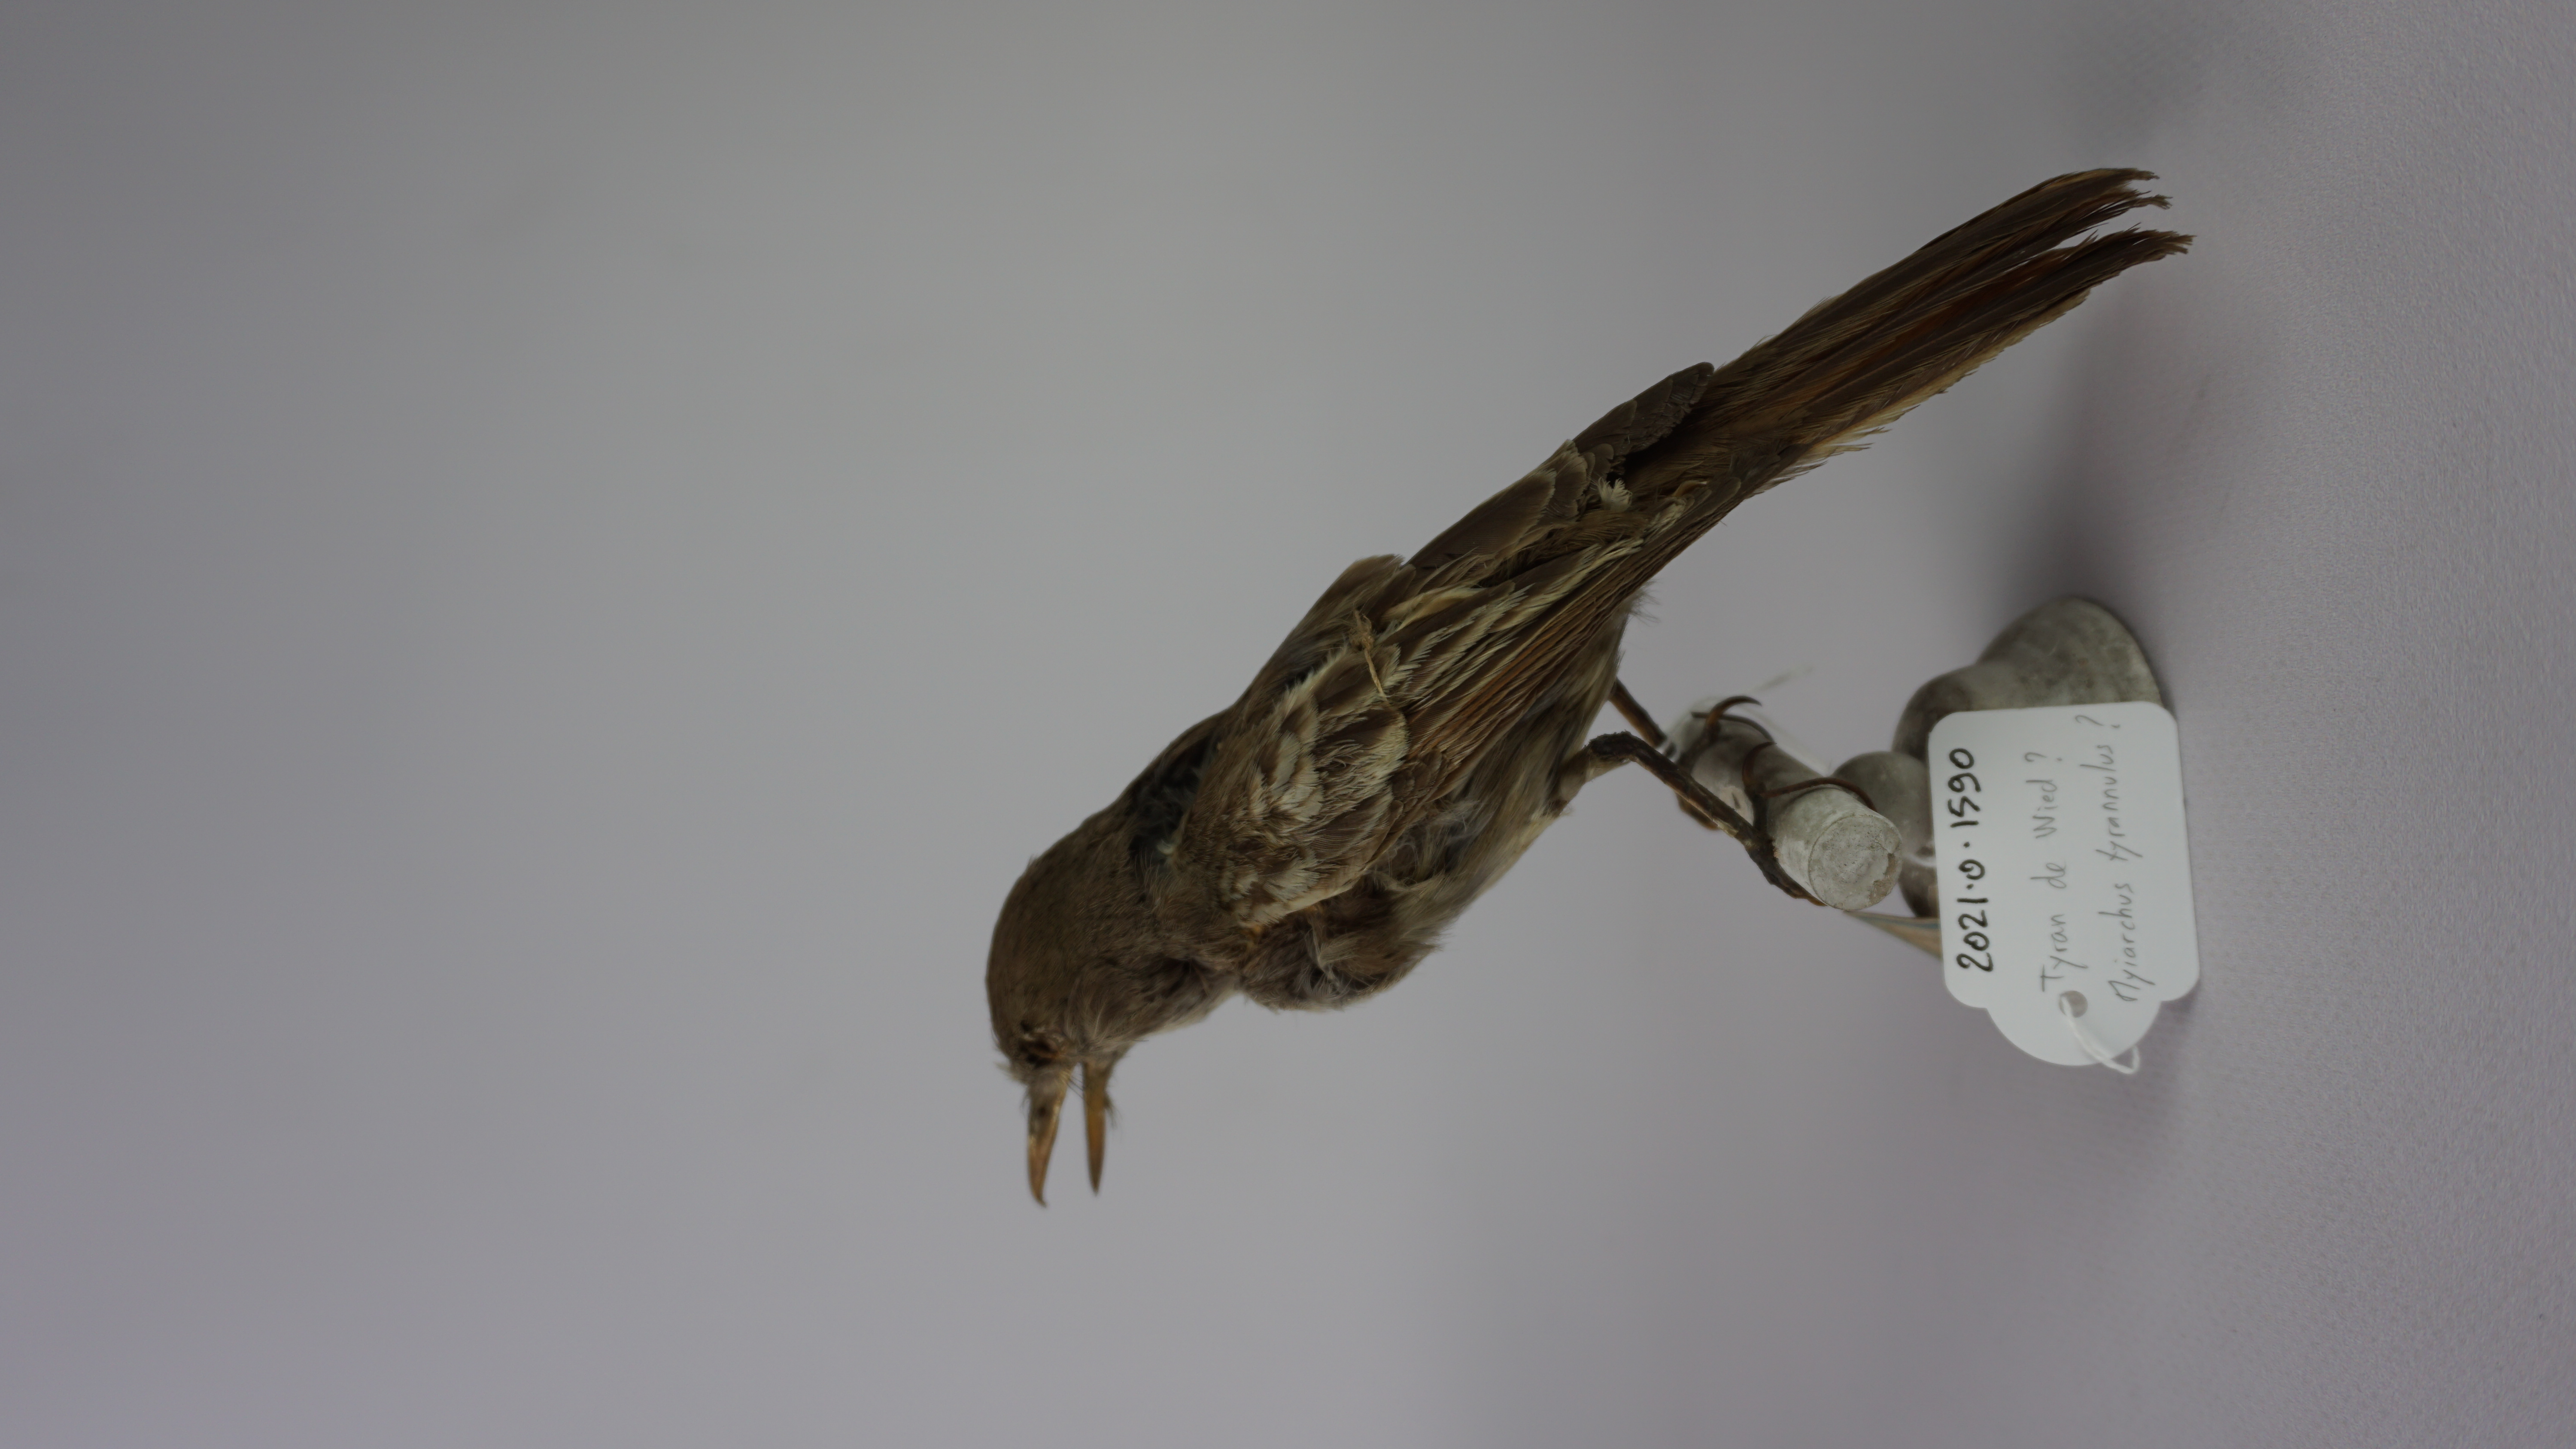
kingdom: Animalia
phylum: Chordata
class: Aves
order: Passeriformes
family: Tyrannidae
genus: Myiarchus
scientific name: Myiarchus tyrannulus
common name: Brown-crested flycatcher
